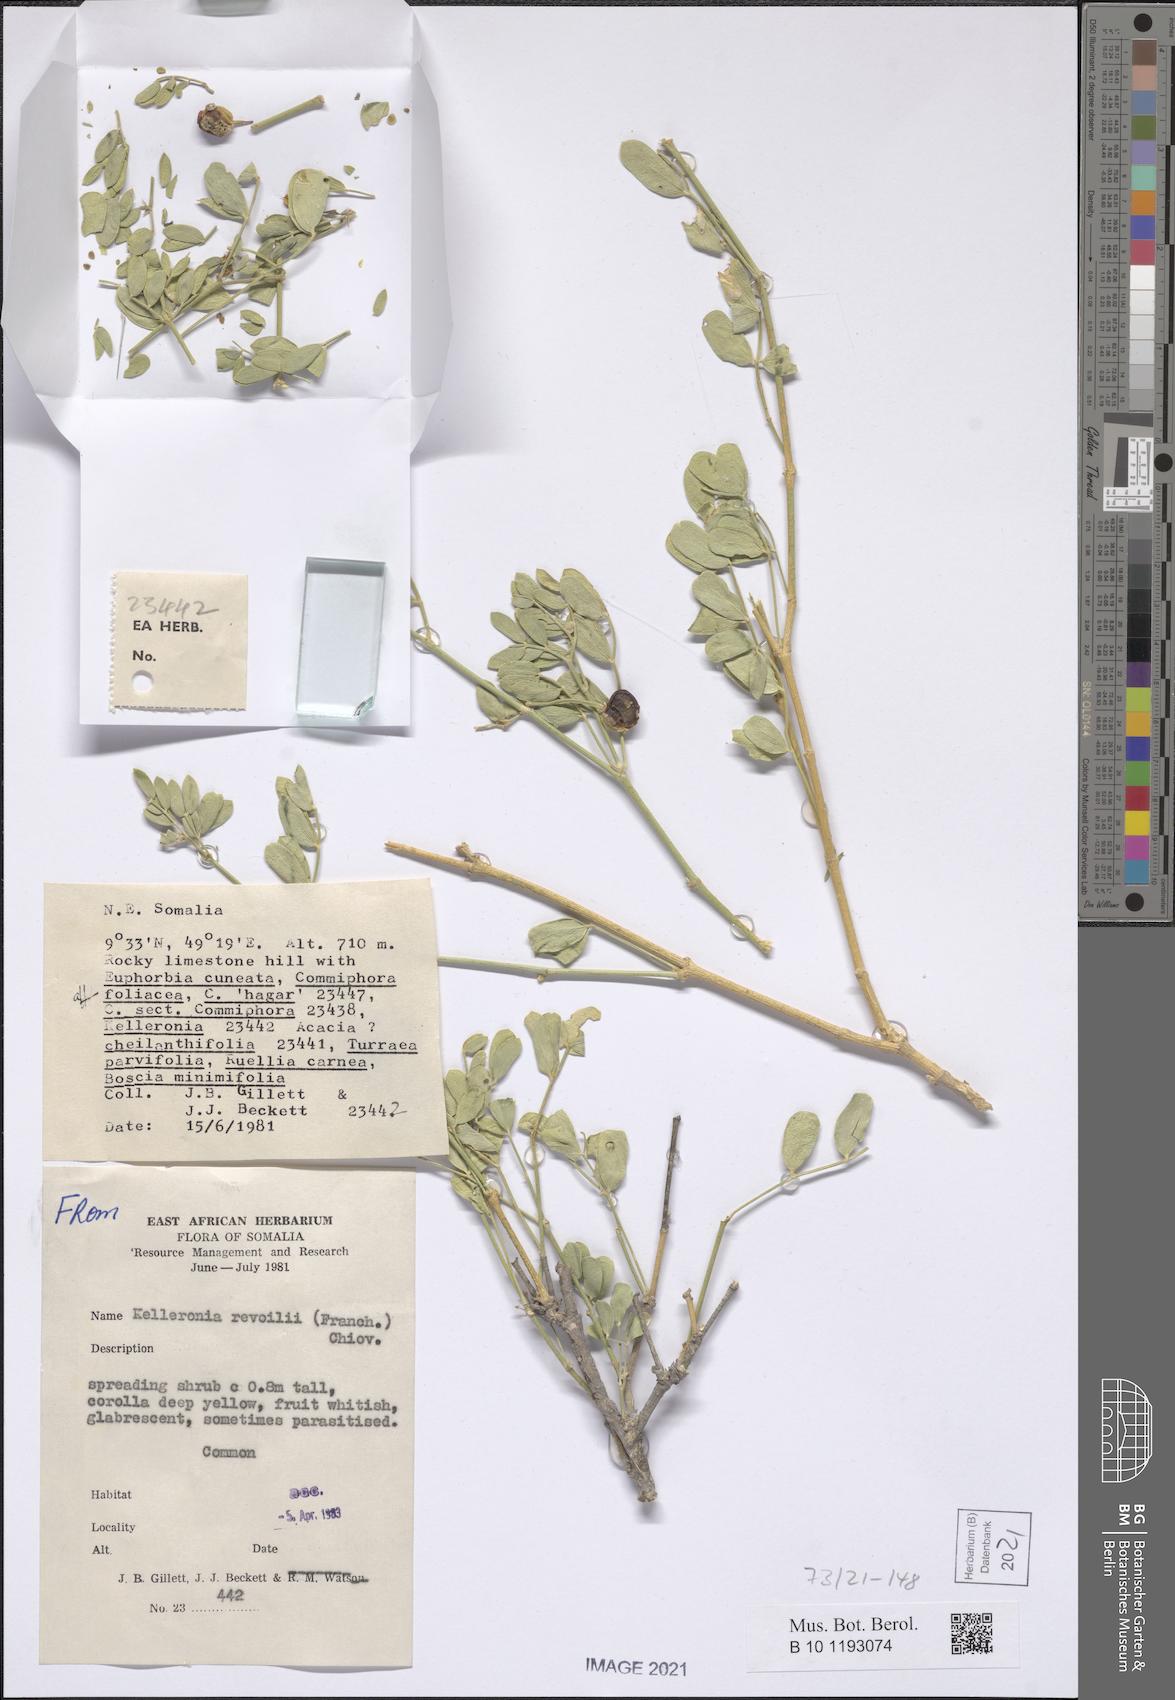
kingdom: Plantae
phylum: Tracheophyta
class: Magnoliopsida
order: Zygophyllales
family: Zygophyllaceae
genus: Kelleronia
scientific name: Kelleronia revoilii
